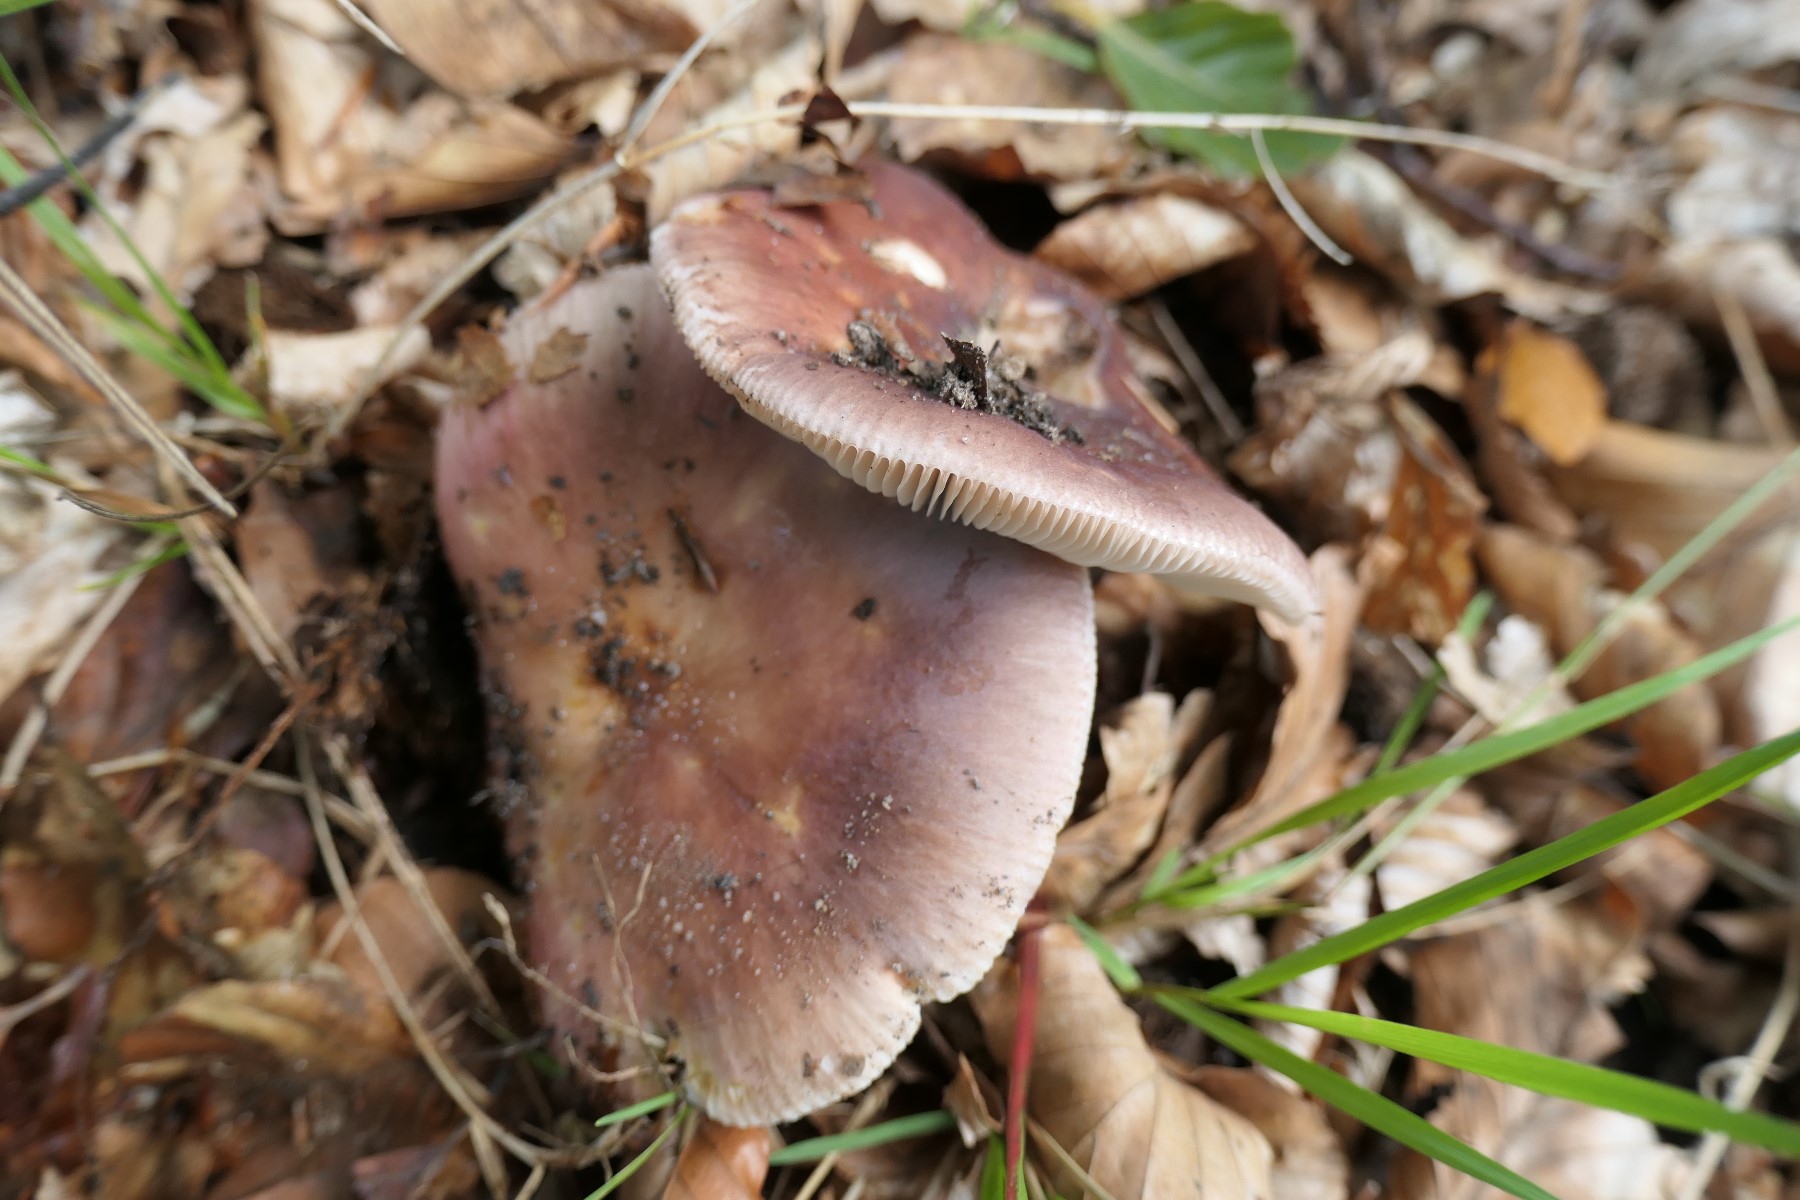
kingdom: Fungi
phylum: Basidiomycota
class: Agaricomycetes
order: Russulales
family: Russulaceae
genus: Russula
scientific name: Russula vesca
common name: spiselig skørhat
